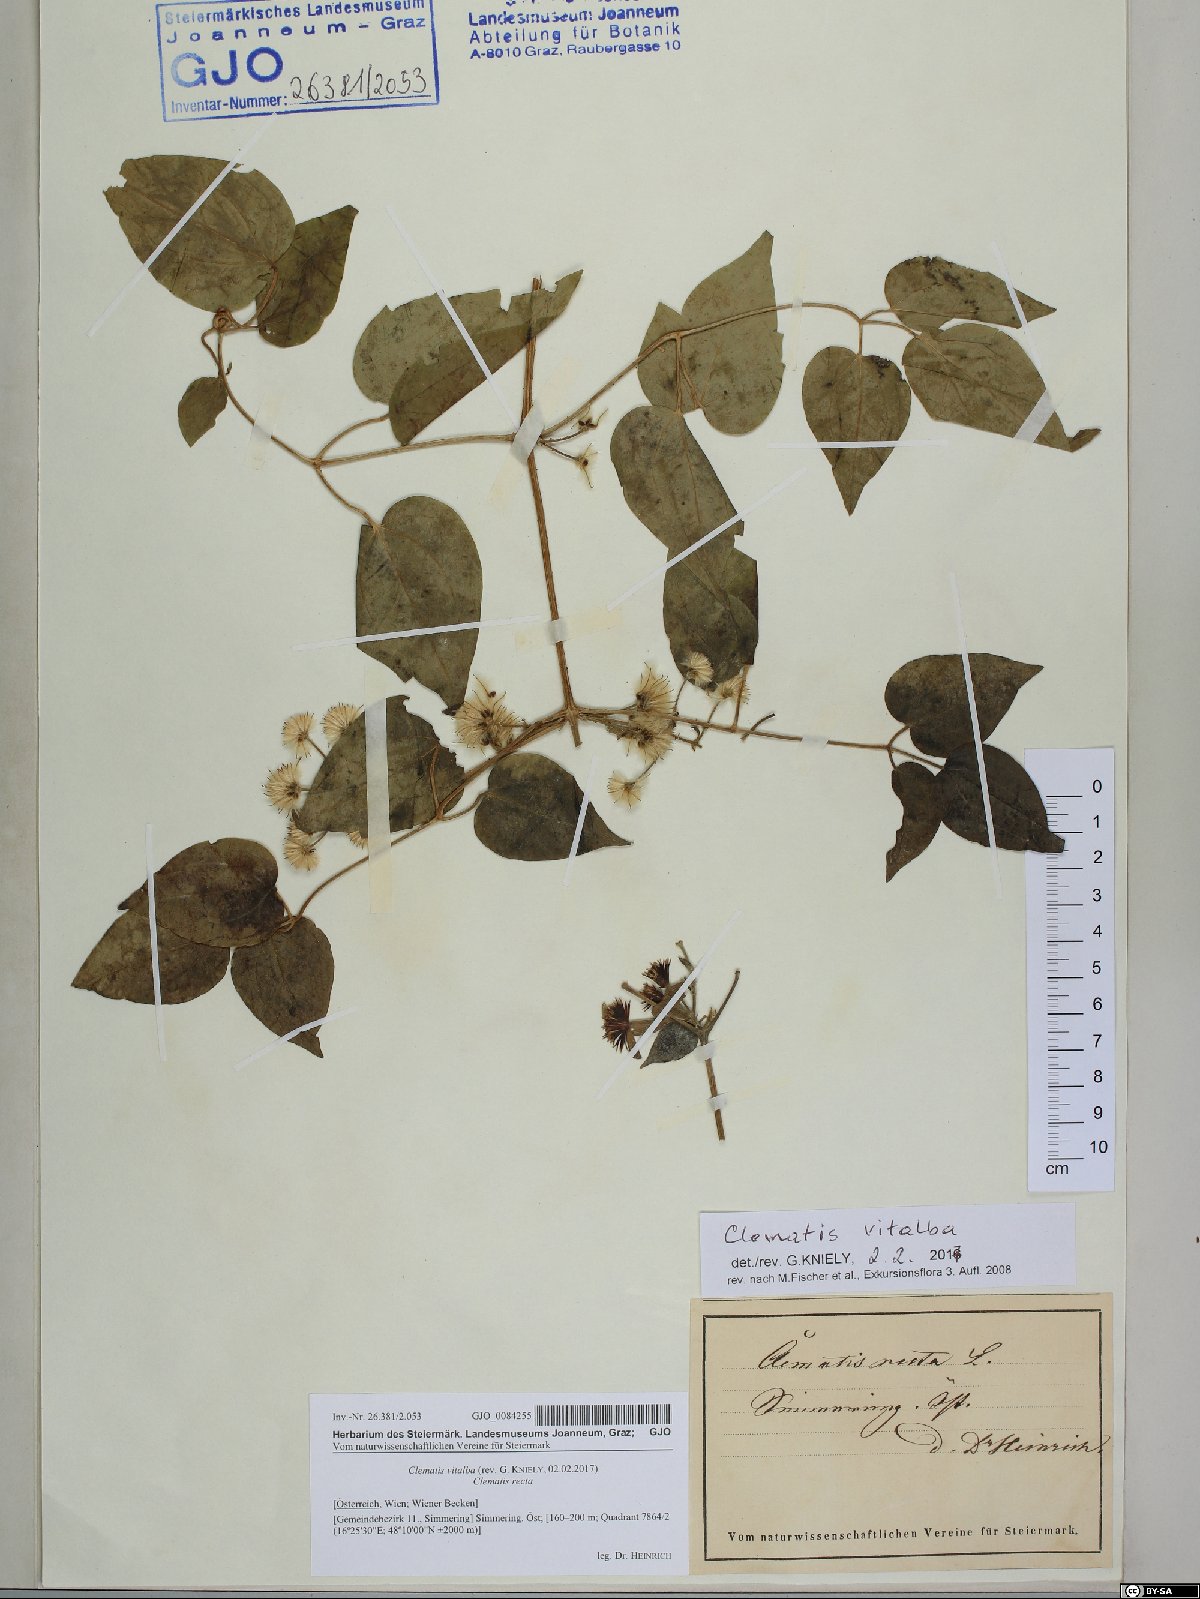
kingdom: Plantae
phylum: Tracheophyta
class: Magnoliopsida
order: Ranunculales
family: Ranunculaceae
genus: Clematis
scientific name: Clematis vitalba
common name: Evergreen clematis
